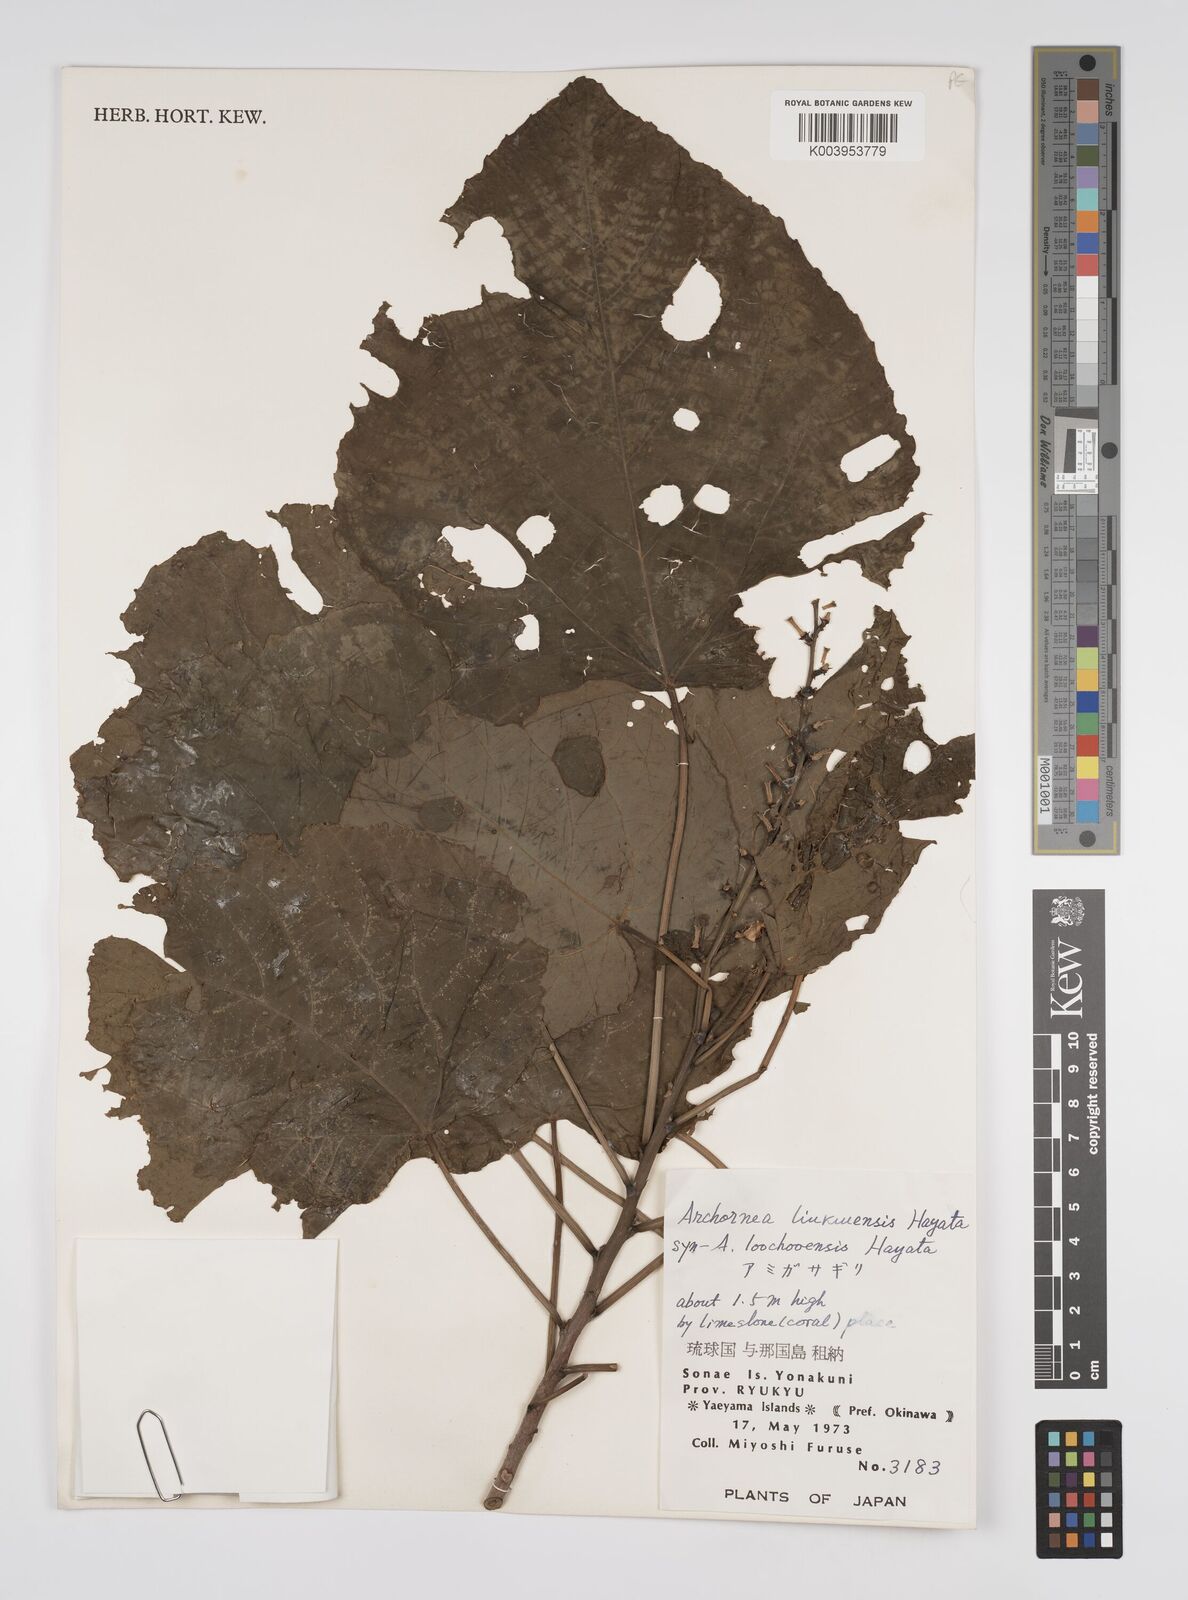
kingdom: Plantae
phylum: Tracheophyta
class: Magnoliopsida
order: Malpighiales
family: Euphorbiaceae
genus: Alchornea
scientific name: Alchornea liukiuensis
